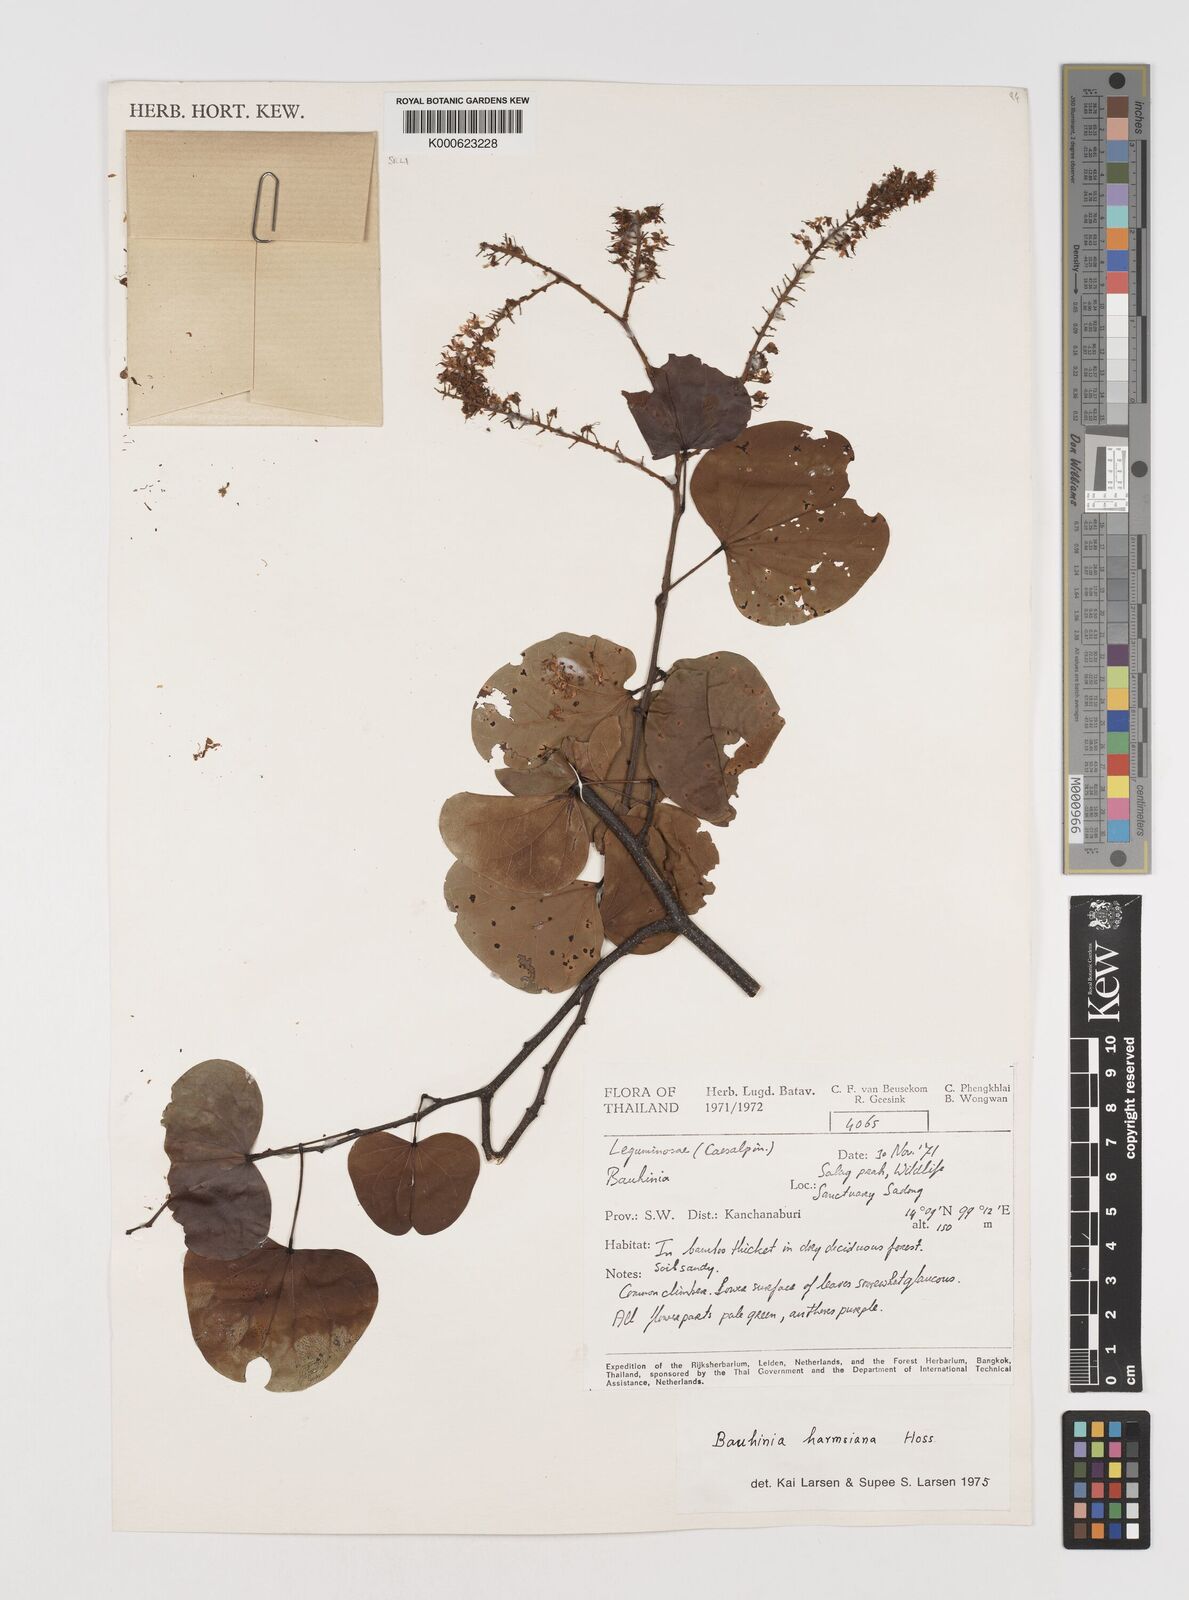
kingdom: Plantae
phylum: Tracheophyta
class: Magnoliopsida
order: Fabales
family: Fabaceae
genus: Phanera
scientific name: Phanera harmsiana
